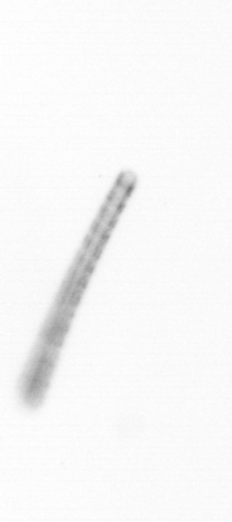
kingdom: Chromista
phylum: Ochrophyta
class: Bacillariophyceae
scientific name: Bacillariophyceae
